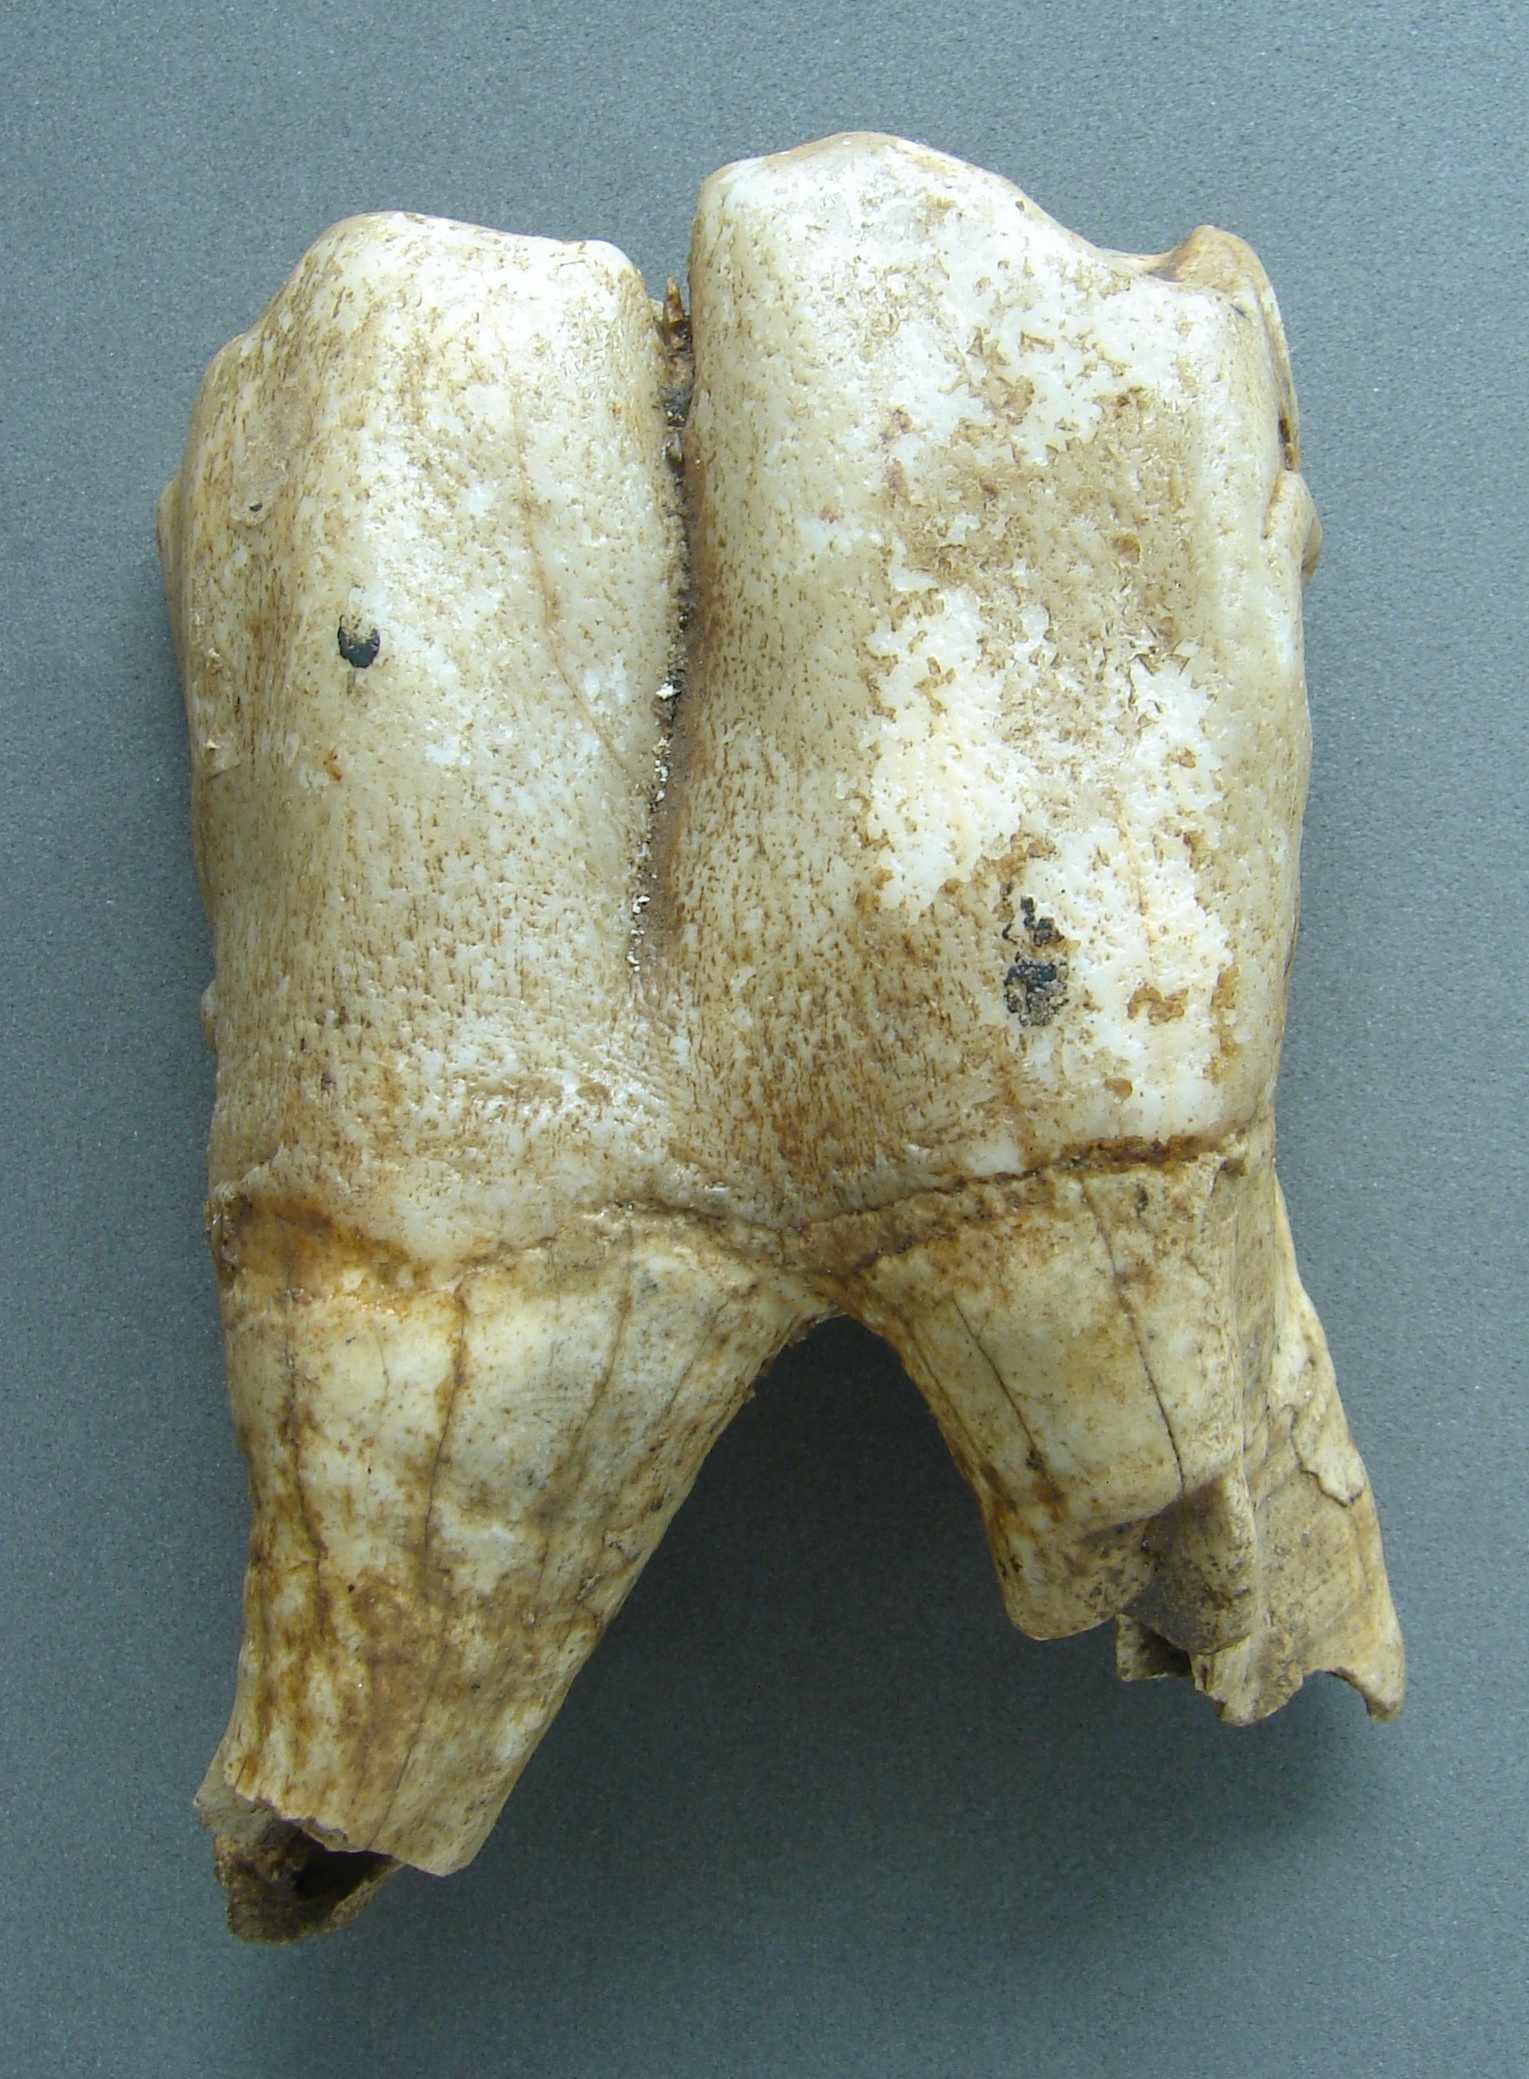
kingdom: Animalia
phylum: Chordata
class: Mammalia
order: Perissodactyla
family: Rhinocerotidae
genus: Rhinoceros
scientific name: Rhinoceros
